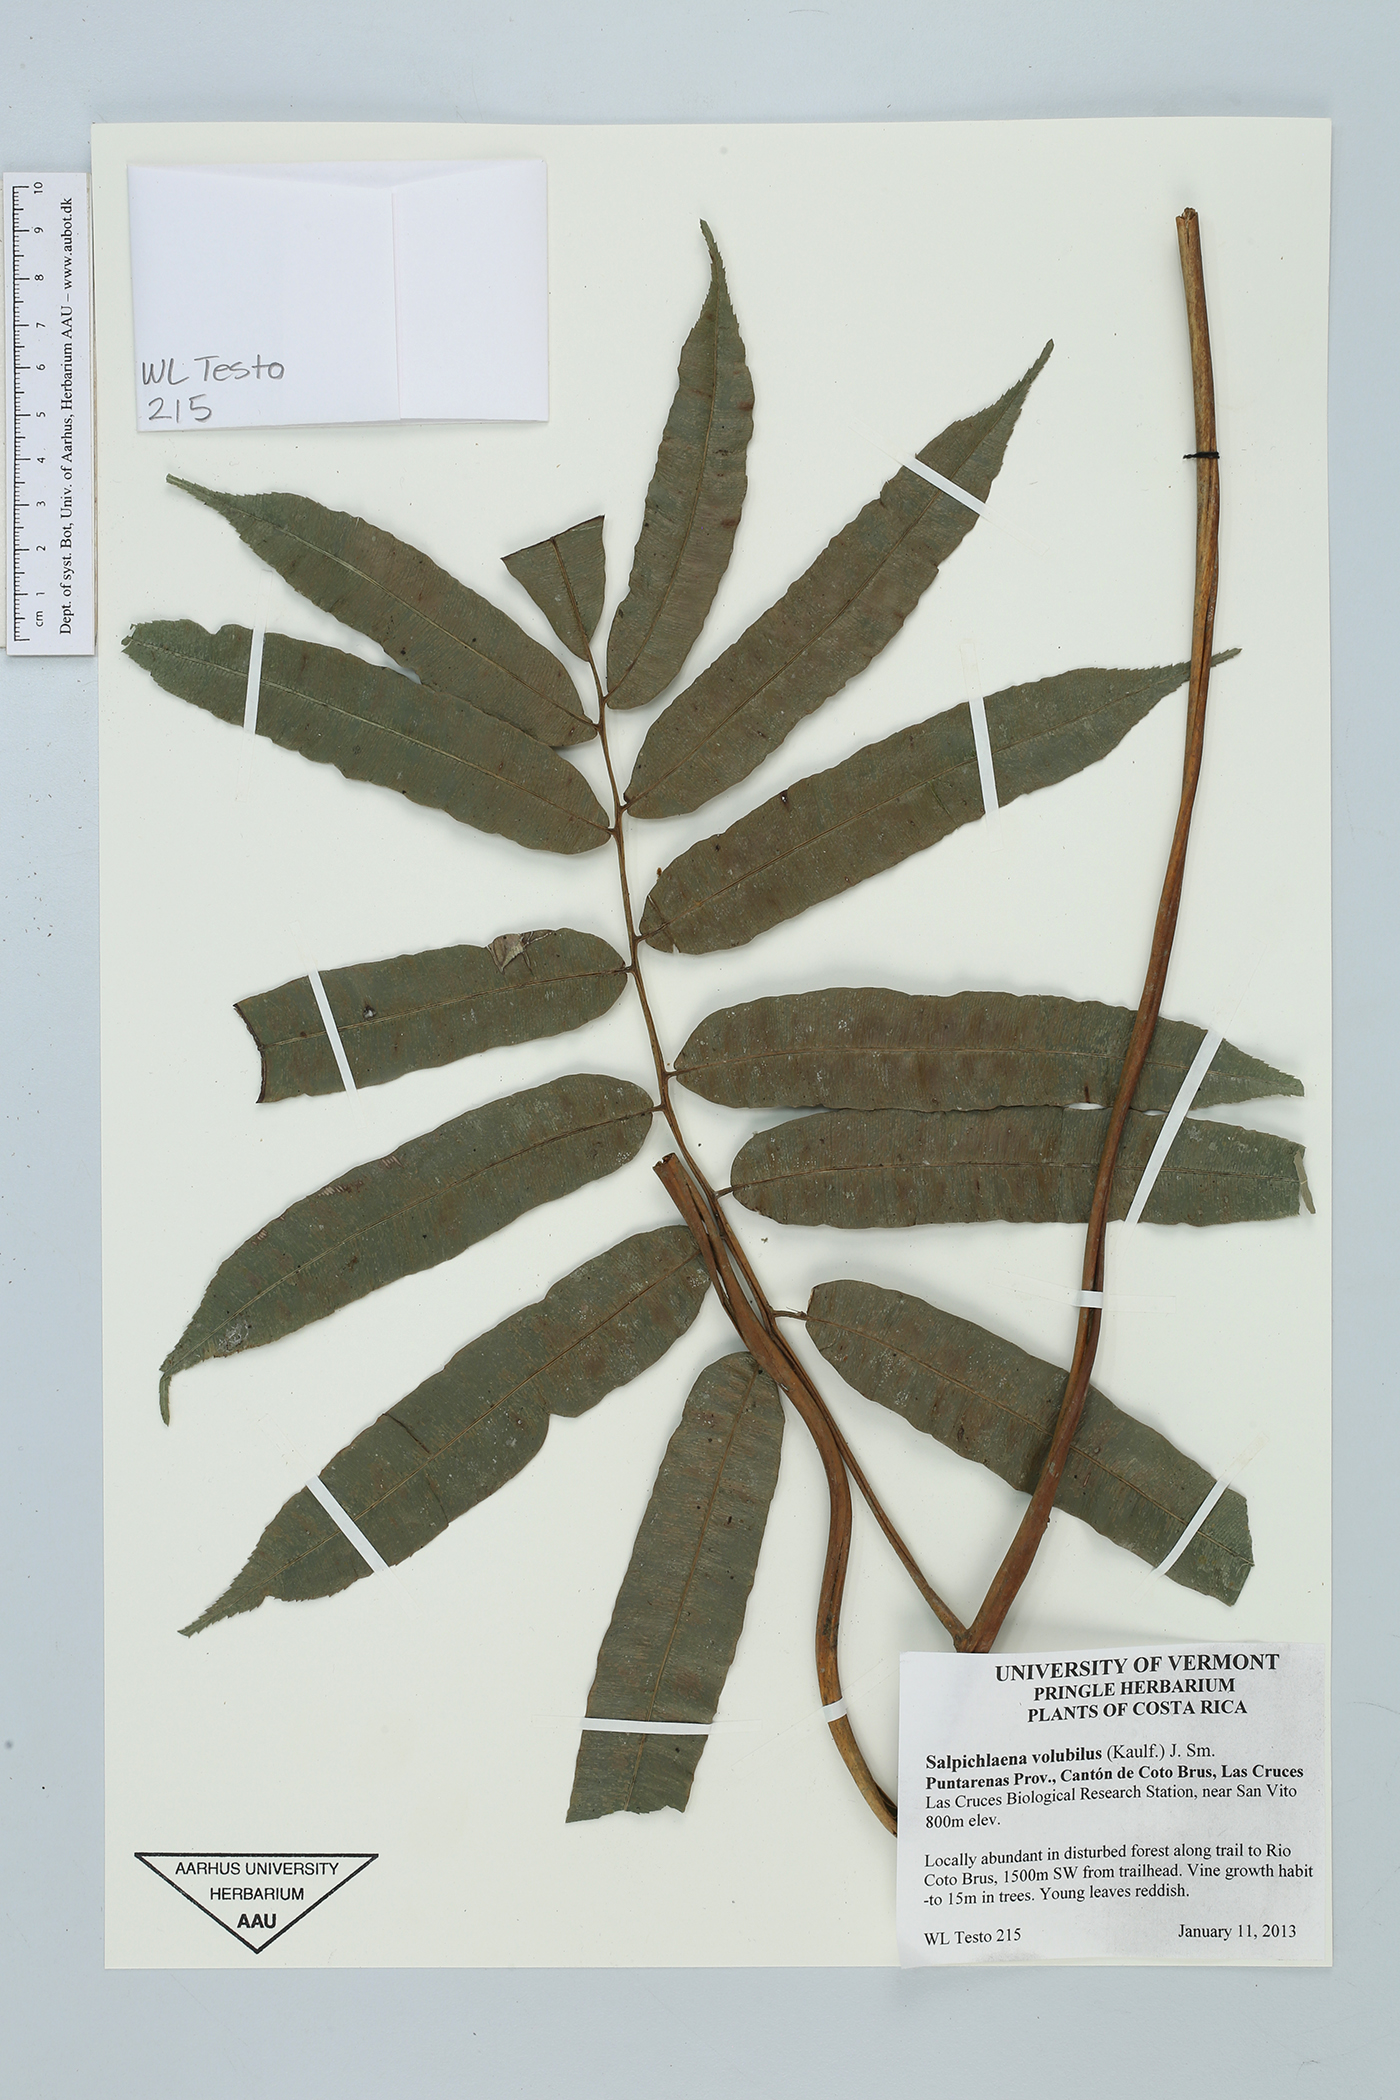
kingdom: Plantae
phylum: Tracheophyta
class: Polypodiopsida
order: Polypodiales
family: Blechnaceae
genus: Salpichlaena
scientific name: Salpichlaena papyrus
